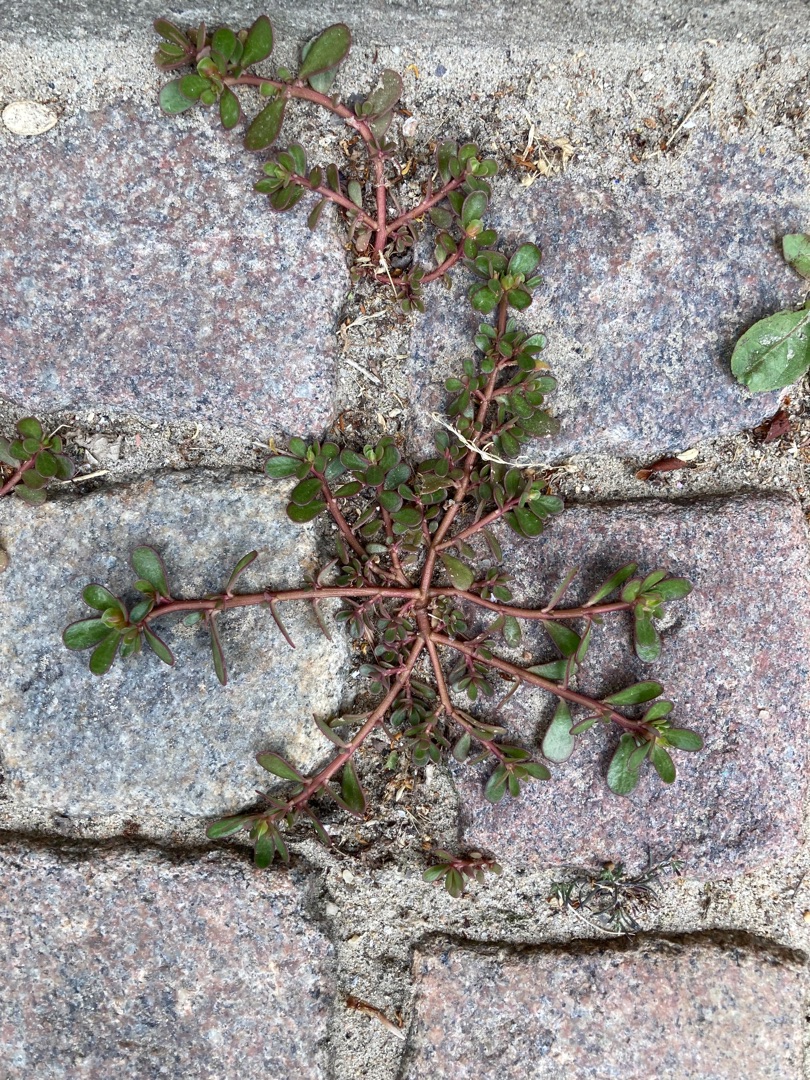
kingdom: Plantae
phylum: Tracheophyta
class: Magnoliopsida
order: Caryophyllales
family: Portulacaceae
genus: Portulaca
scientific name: Portulaca oleracea
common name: Portulak
